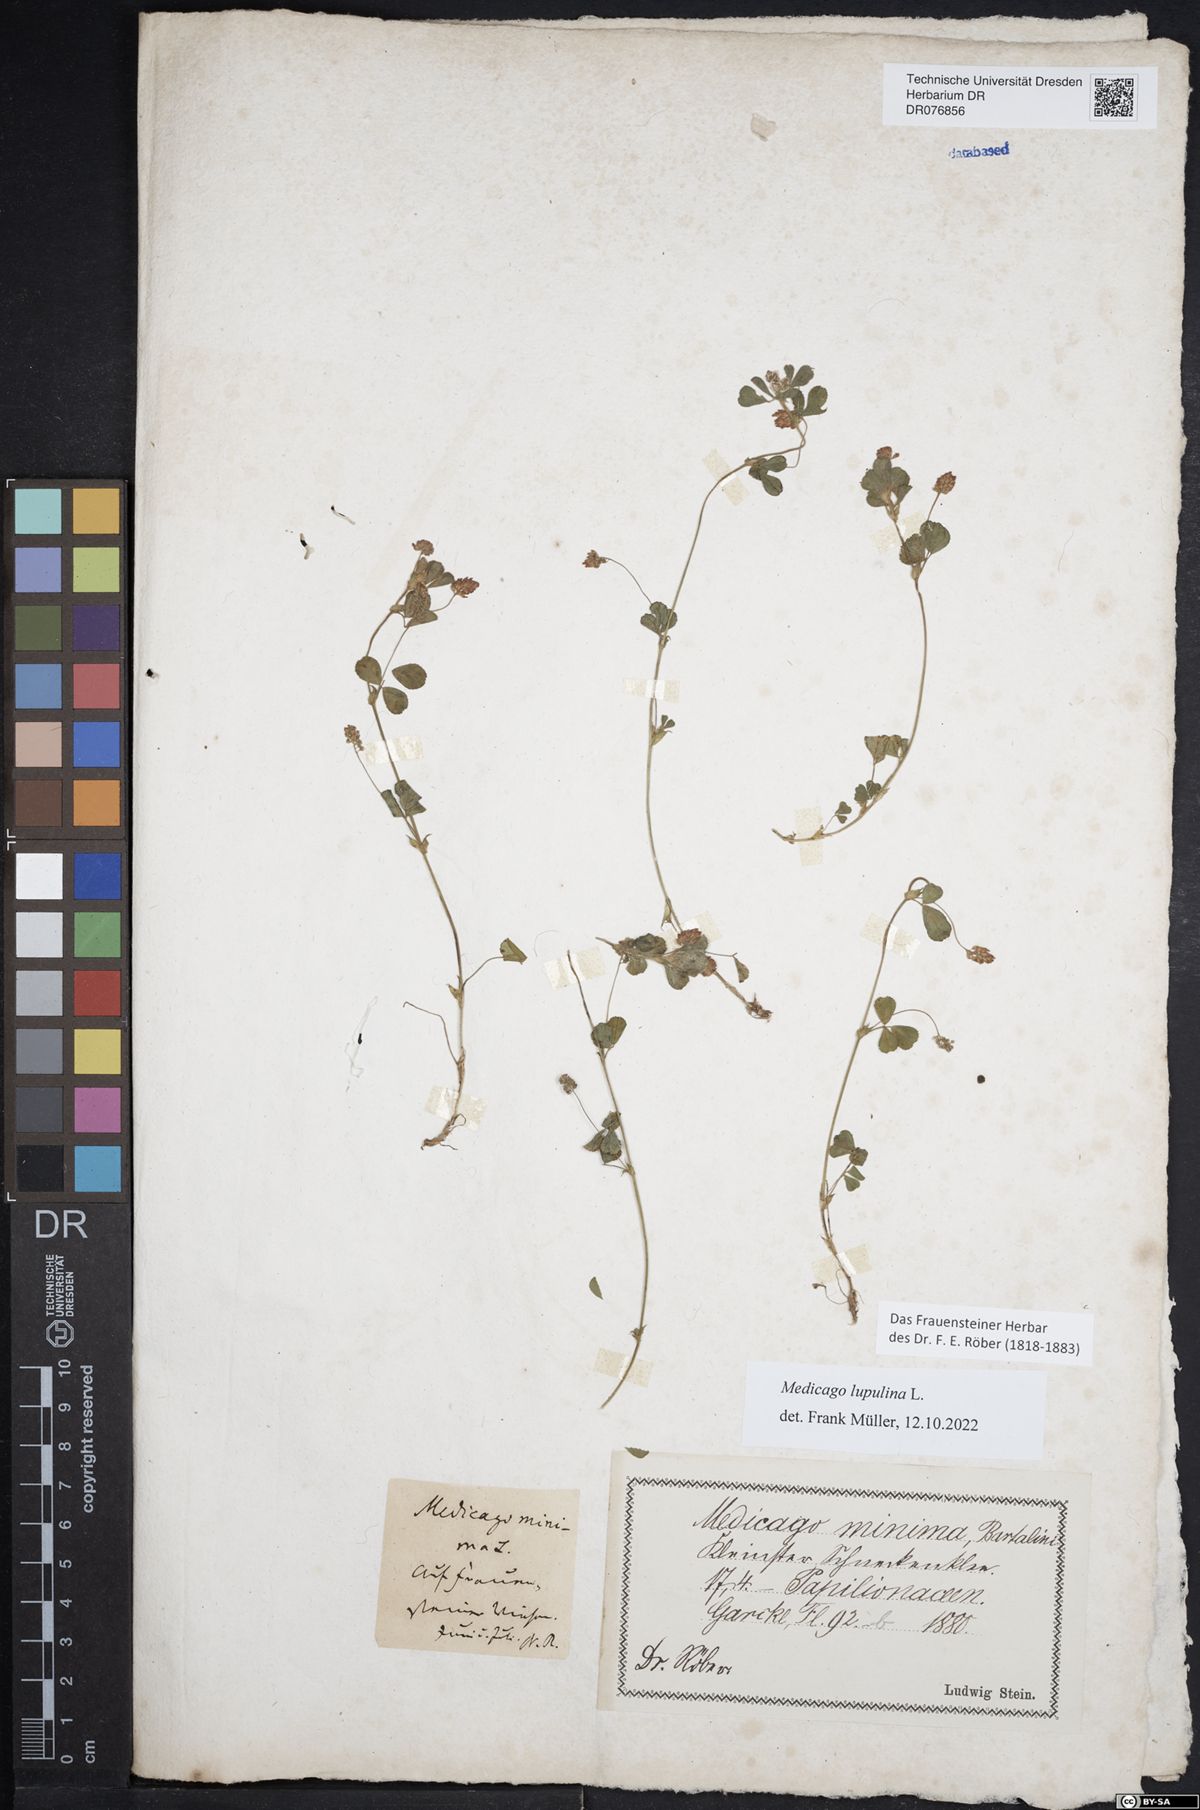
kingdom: Plantae
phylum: Tracheophyta
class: Magnoliopsida
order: Fabales
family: Fabaceae
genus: Medicago
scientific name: Medicago lupulina
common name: Black medick
